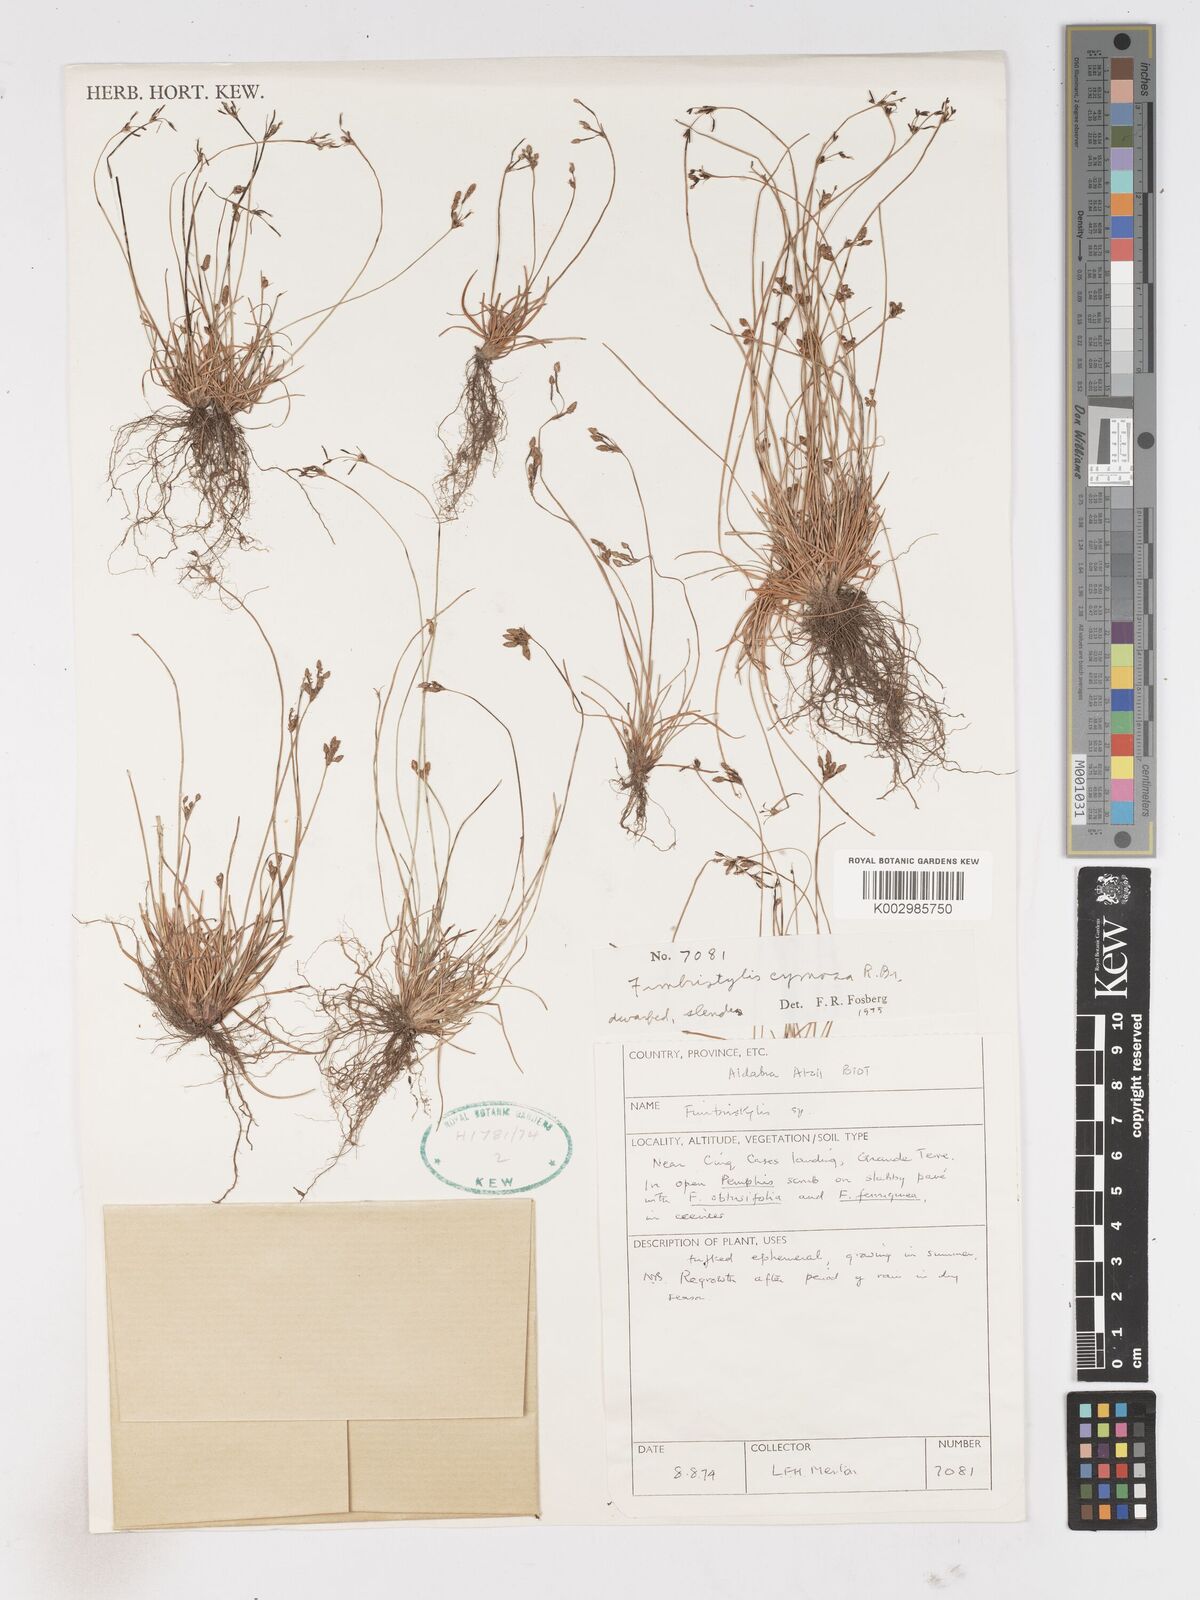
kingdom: Plantae
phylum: Tracheophyta
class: Liliopsida
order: Poales
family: Cyperaceae
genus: Fimbristylis
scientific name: Fimbristylis cymosa
